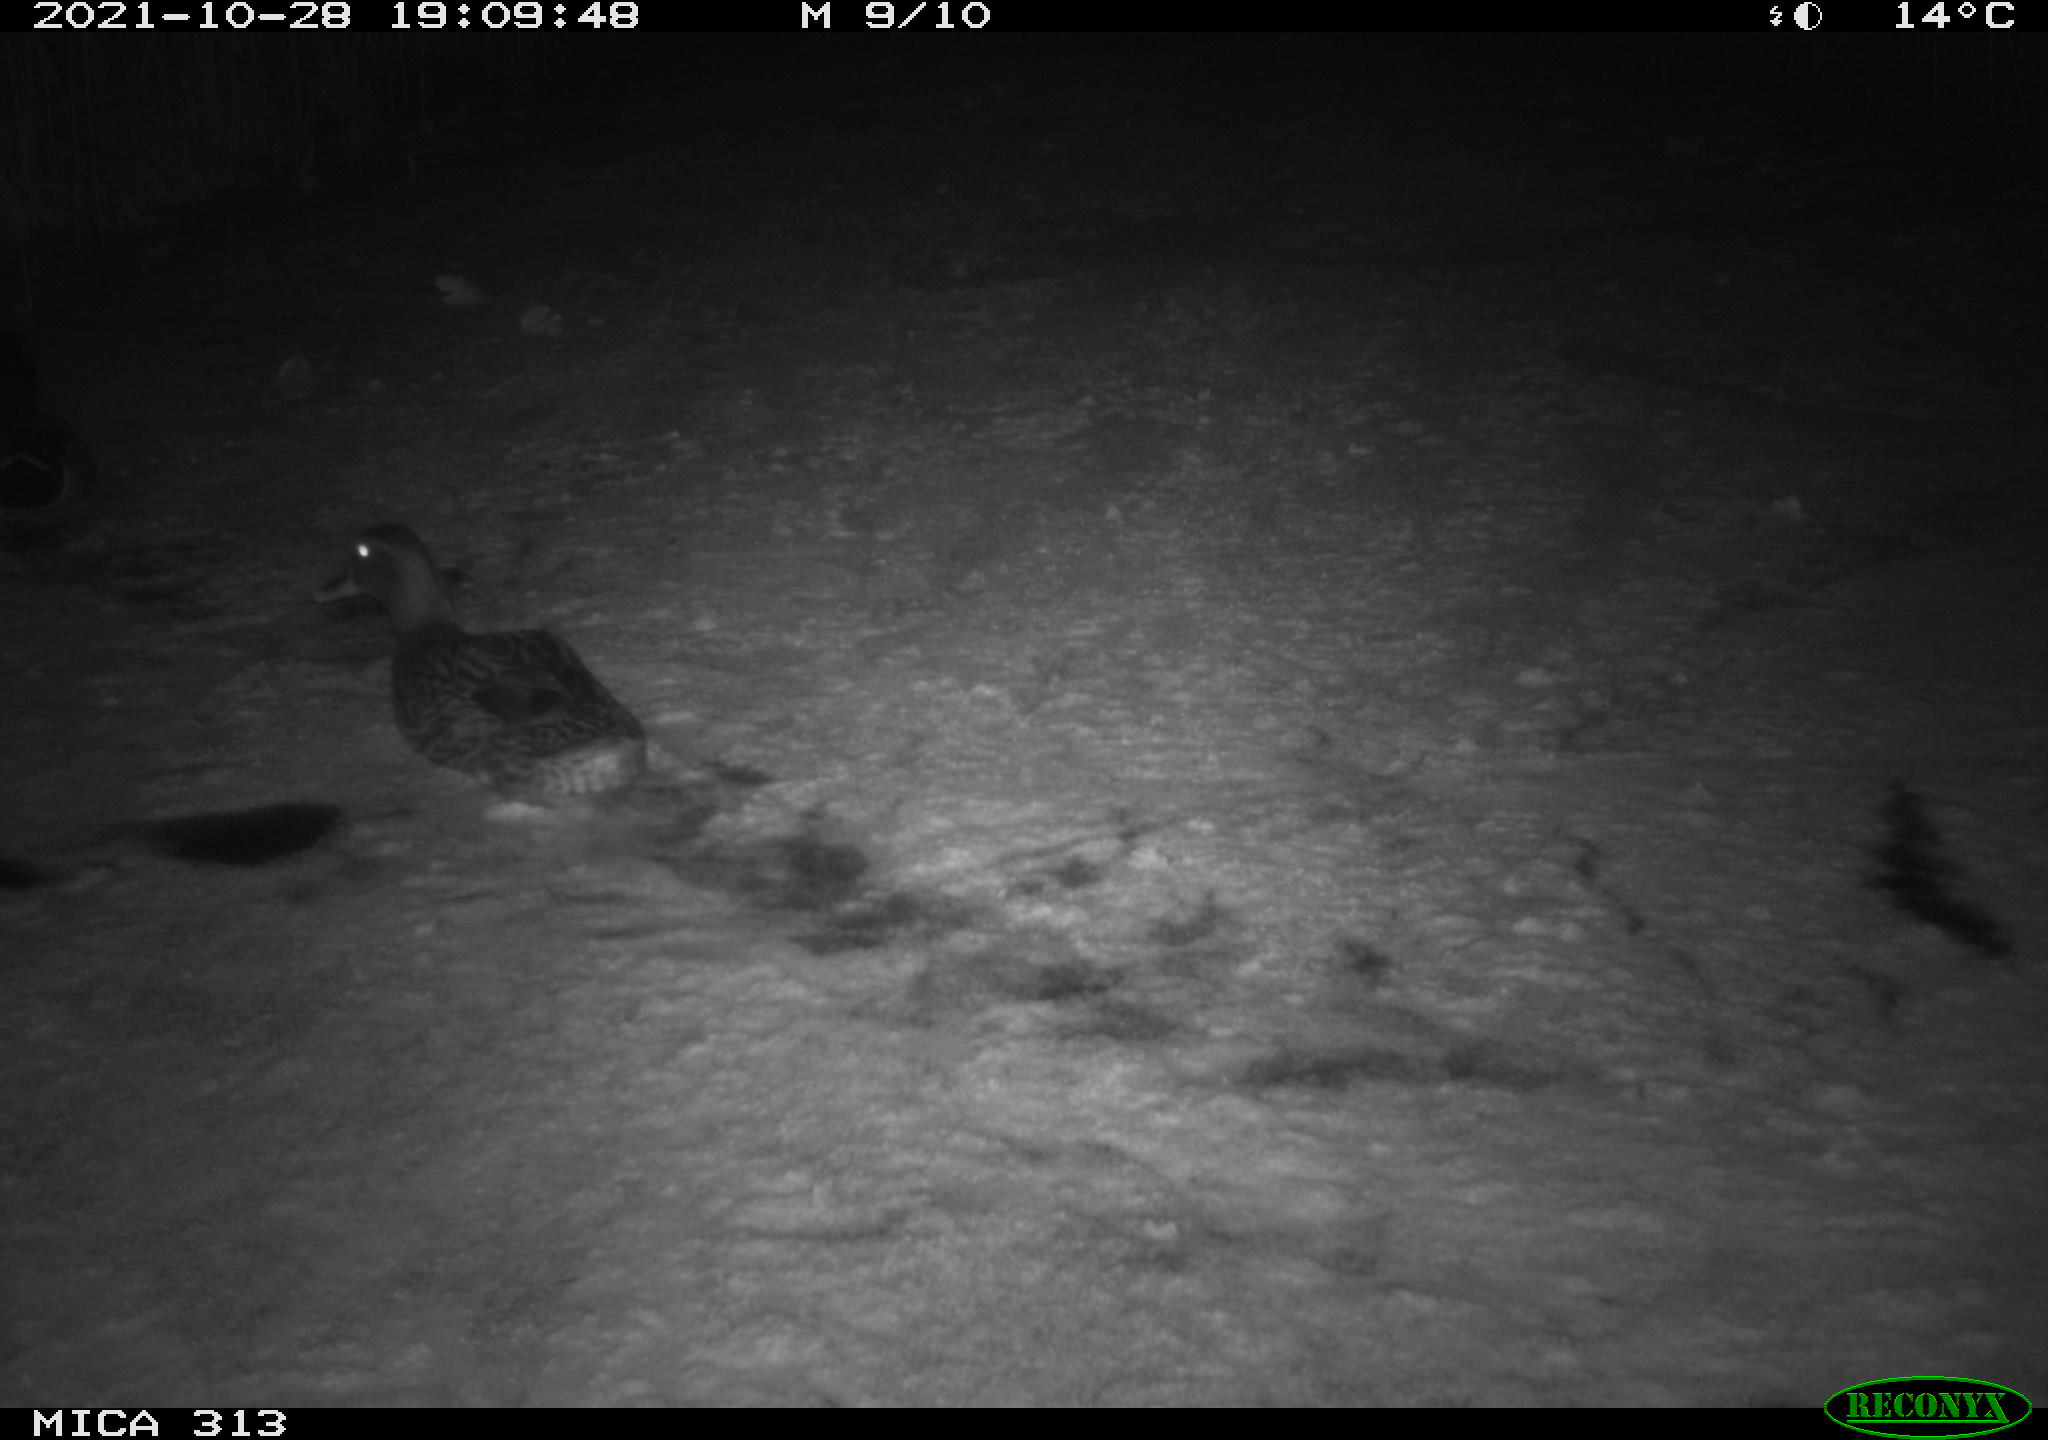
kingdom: Animalia
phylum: Chordata
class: Aves
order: Anseriformes
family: Anatidae
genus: Anas
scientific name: Anas platyrhynchos
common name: Mallard
